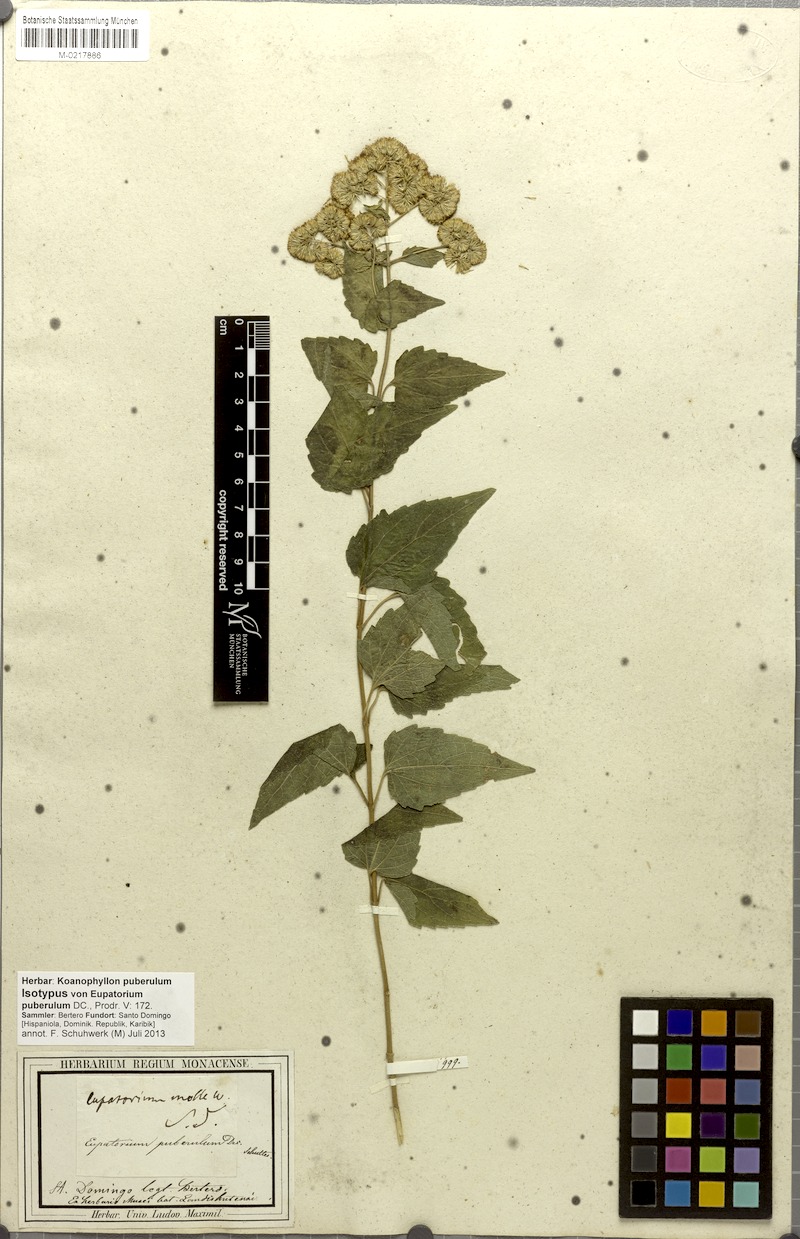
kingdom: Plantae
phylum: Tracheophyta
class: Magnoliopsida
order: Asterales
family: Asteraceae
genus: Koanophyllon
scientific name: Koanophyllon puberulum
